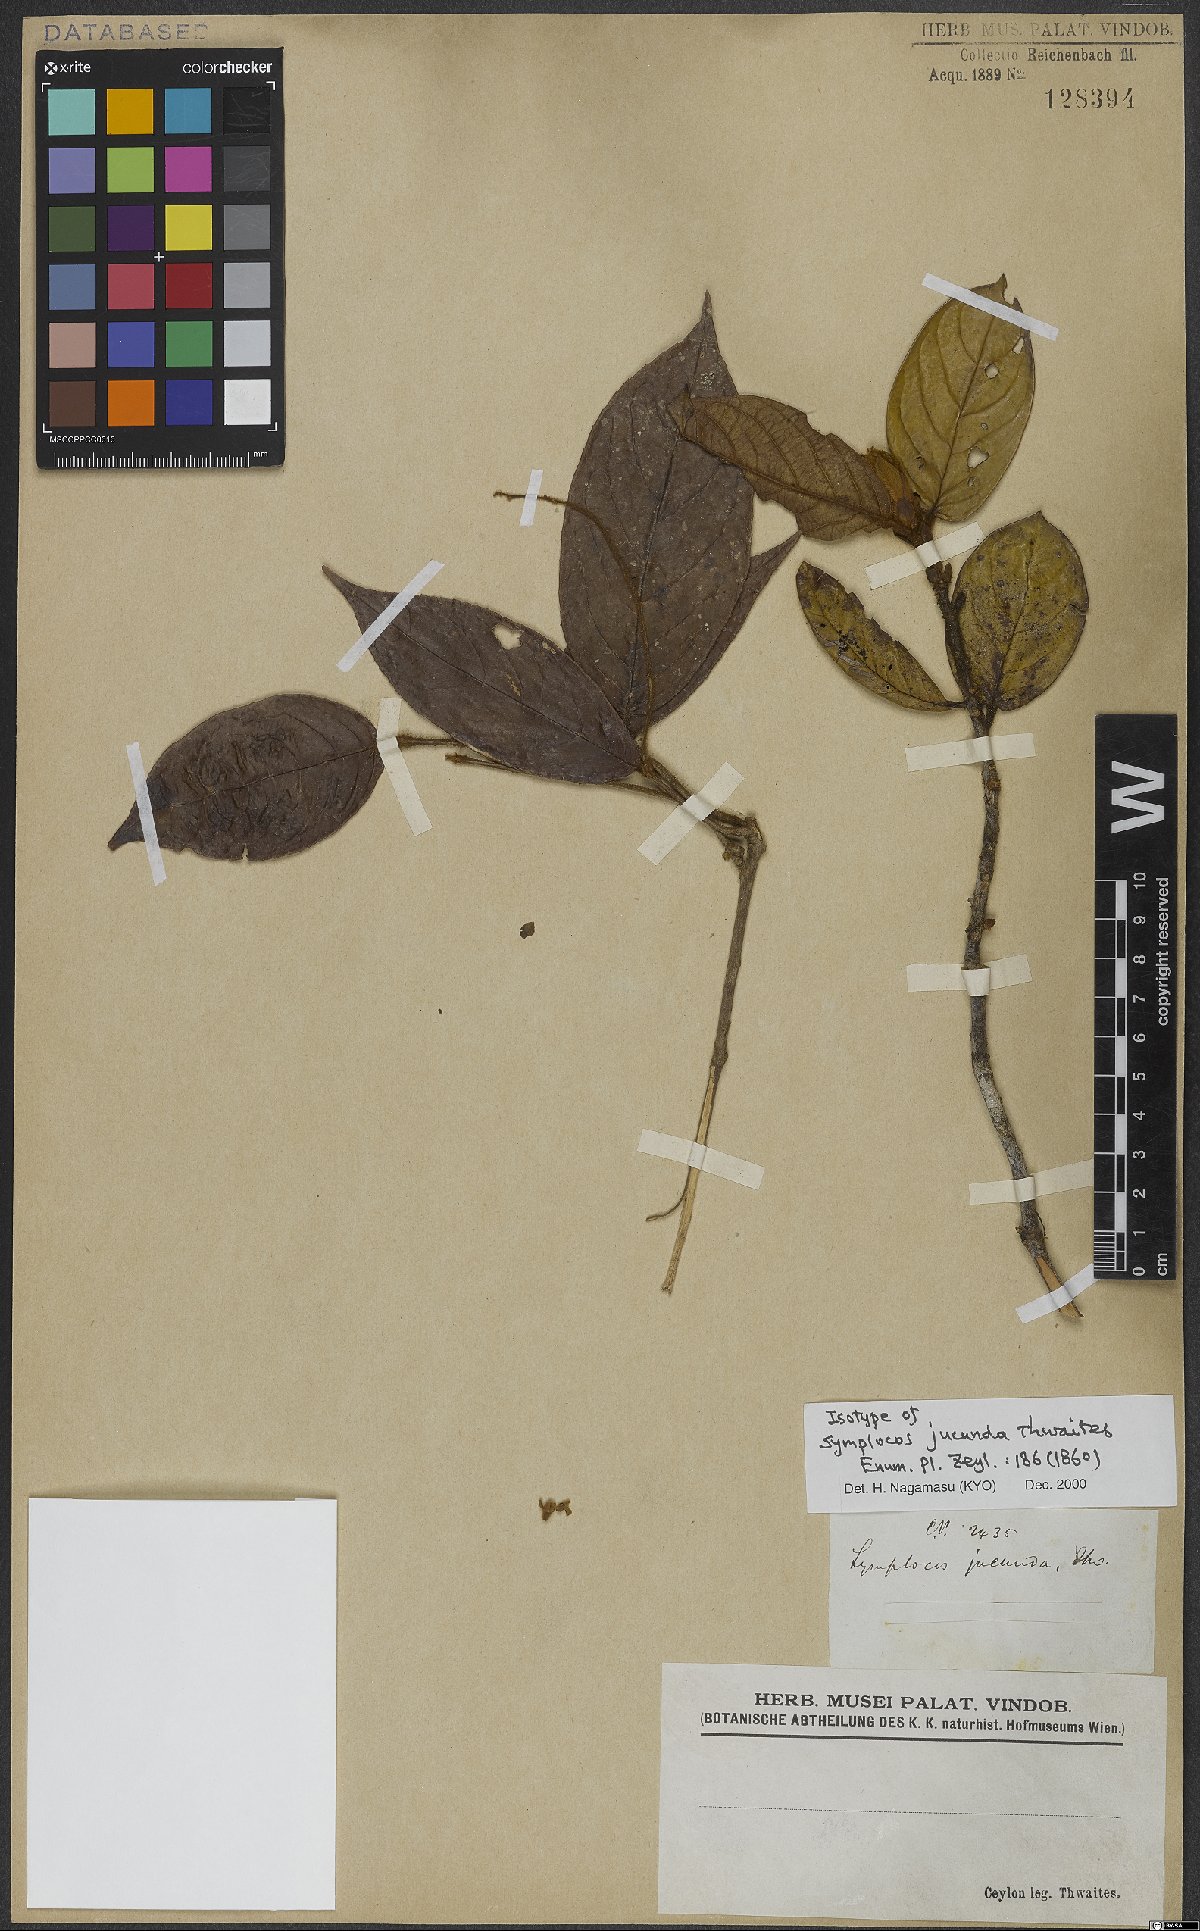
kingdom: Plantae
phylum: Tracheophyta
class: Magnoliopsida
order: Ericales
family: Symplocaceae
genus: Symplocos
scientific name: Symplocos macrophylla
